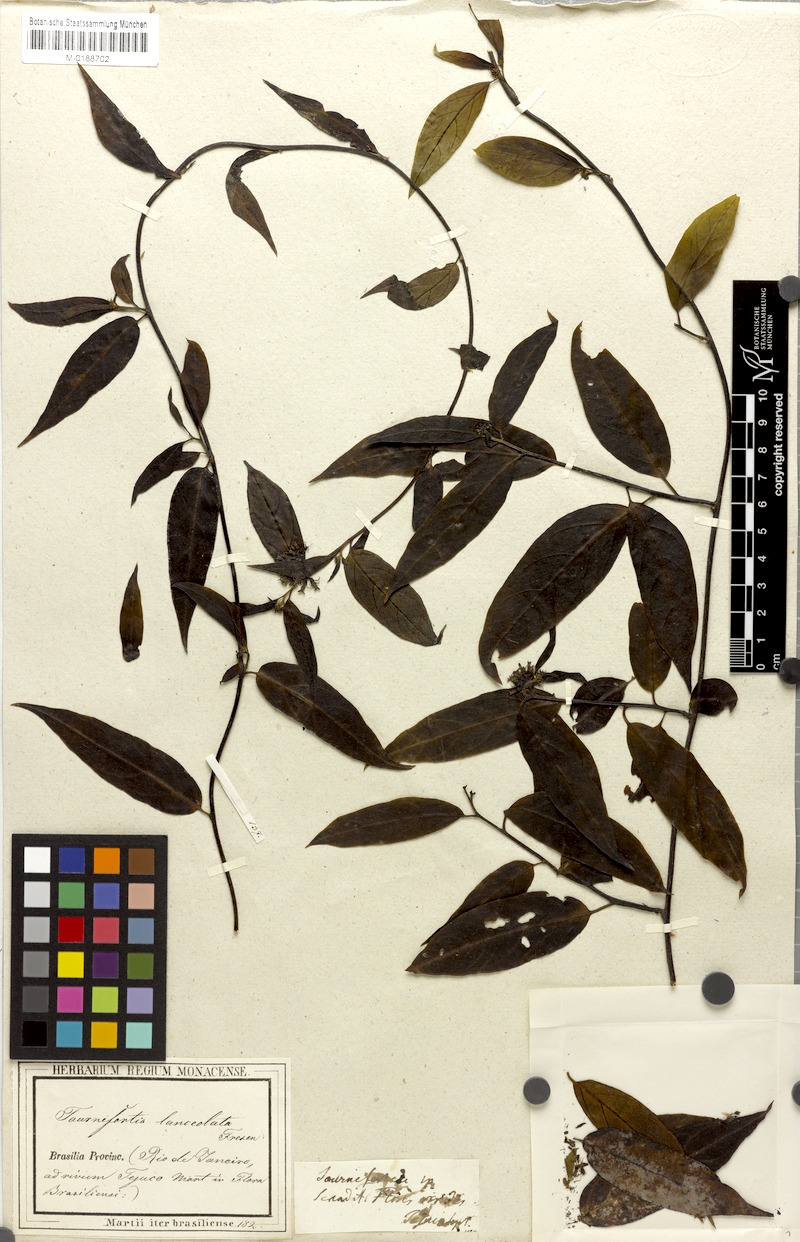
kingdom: Plantae
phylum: Tracheophyta
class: Magnoliopsida
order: Boraginales
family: Heliotropiaceae
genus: Myriopus
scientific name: Myriopus breviflorus
